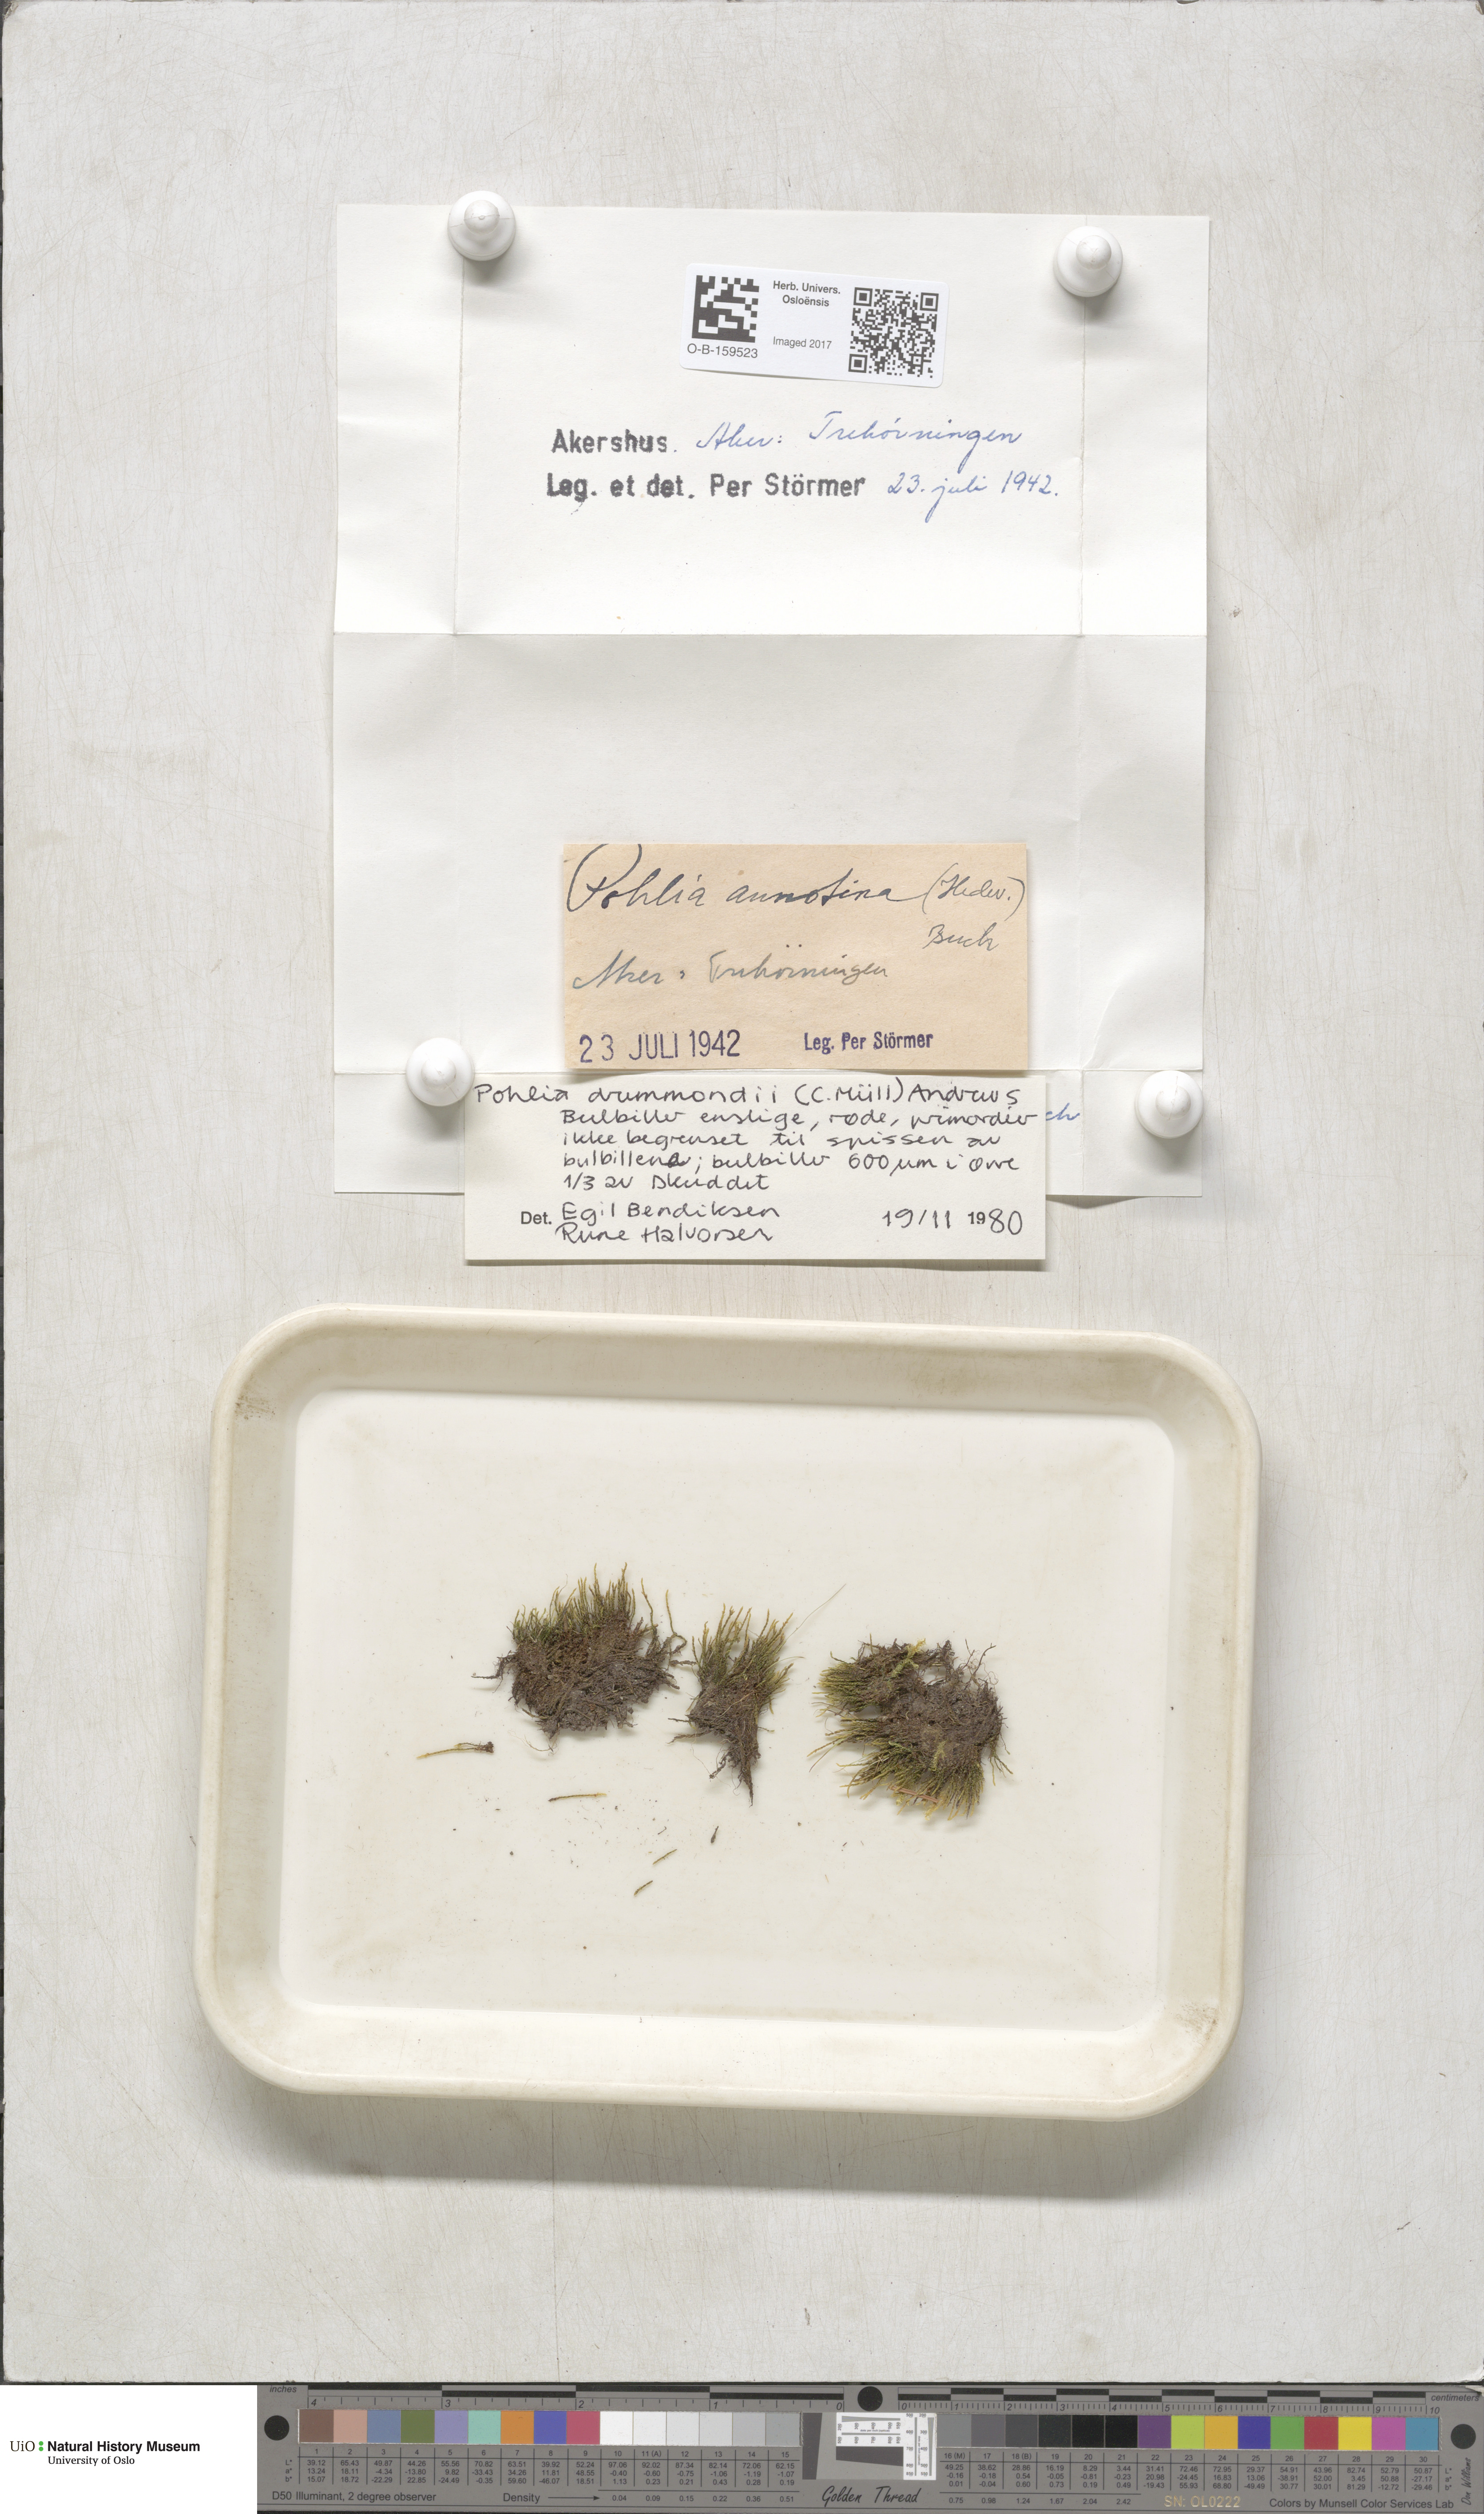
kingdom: Plantae
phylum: Bryophyta
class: Bryopsida
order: Bryales
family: Mniaceae
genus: Pohlia
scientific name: Pohlia drummondii
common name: Drummond's nodding moss
